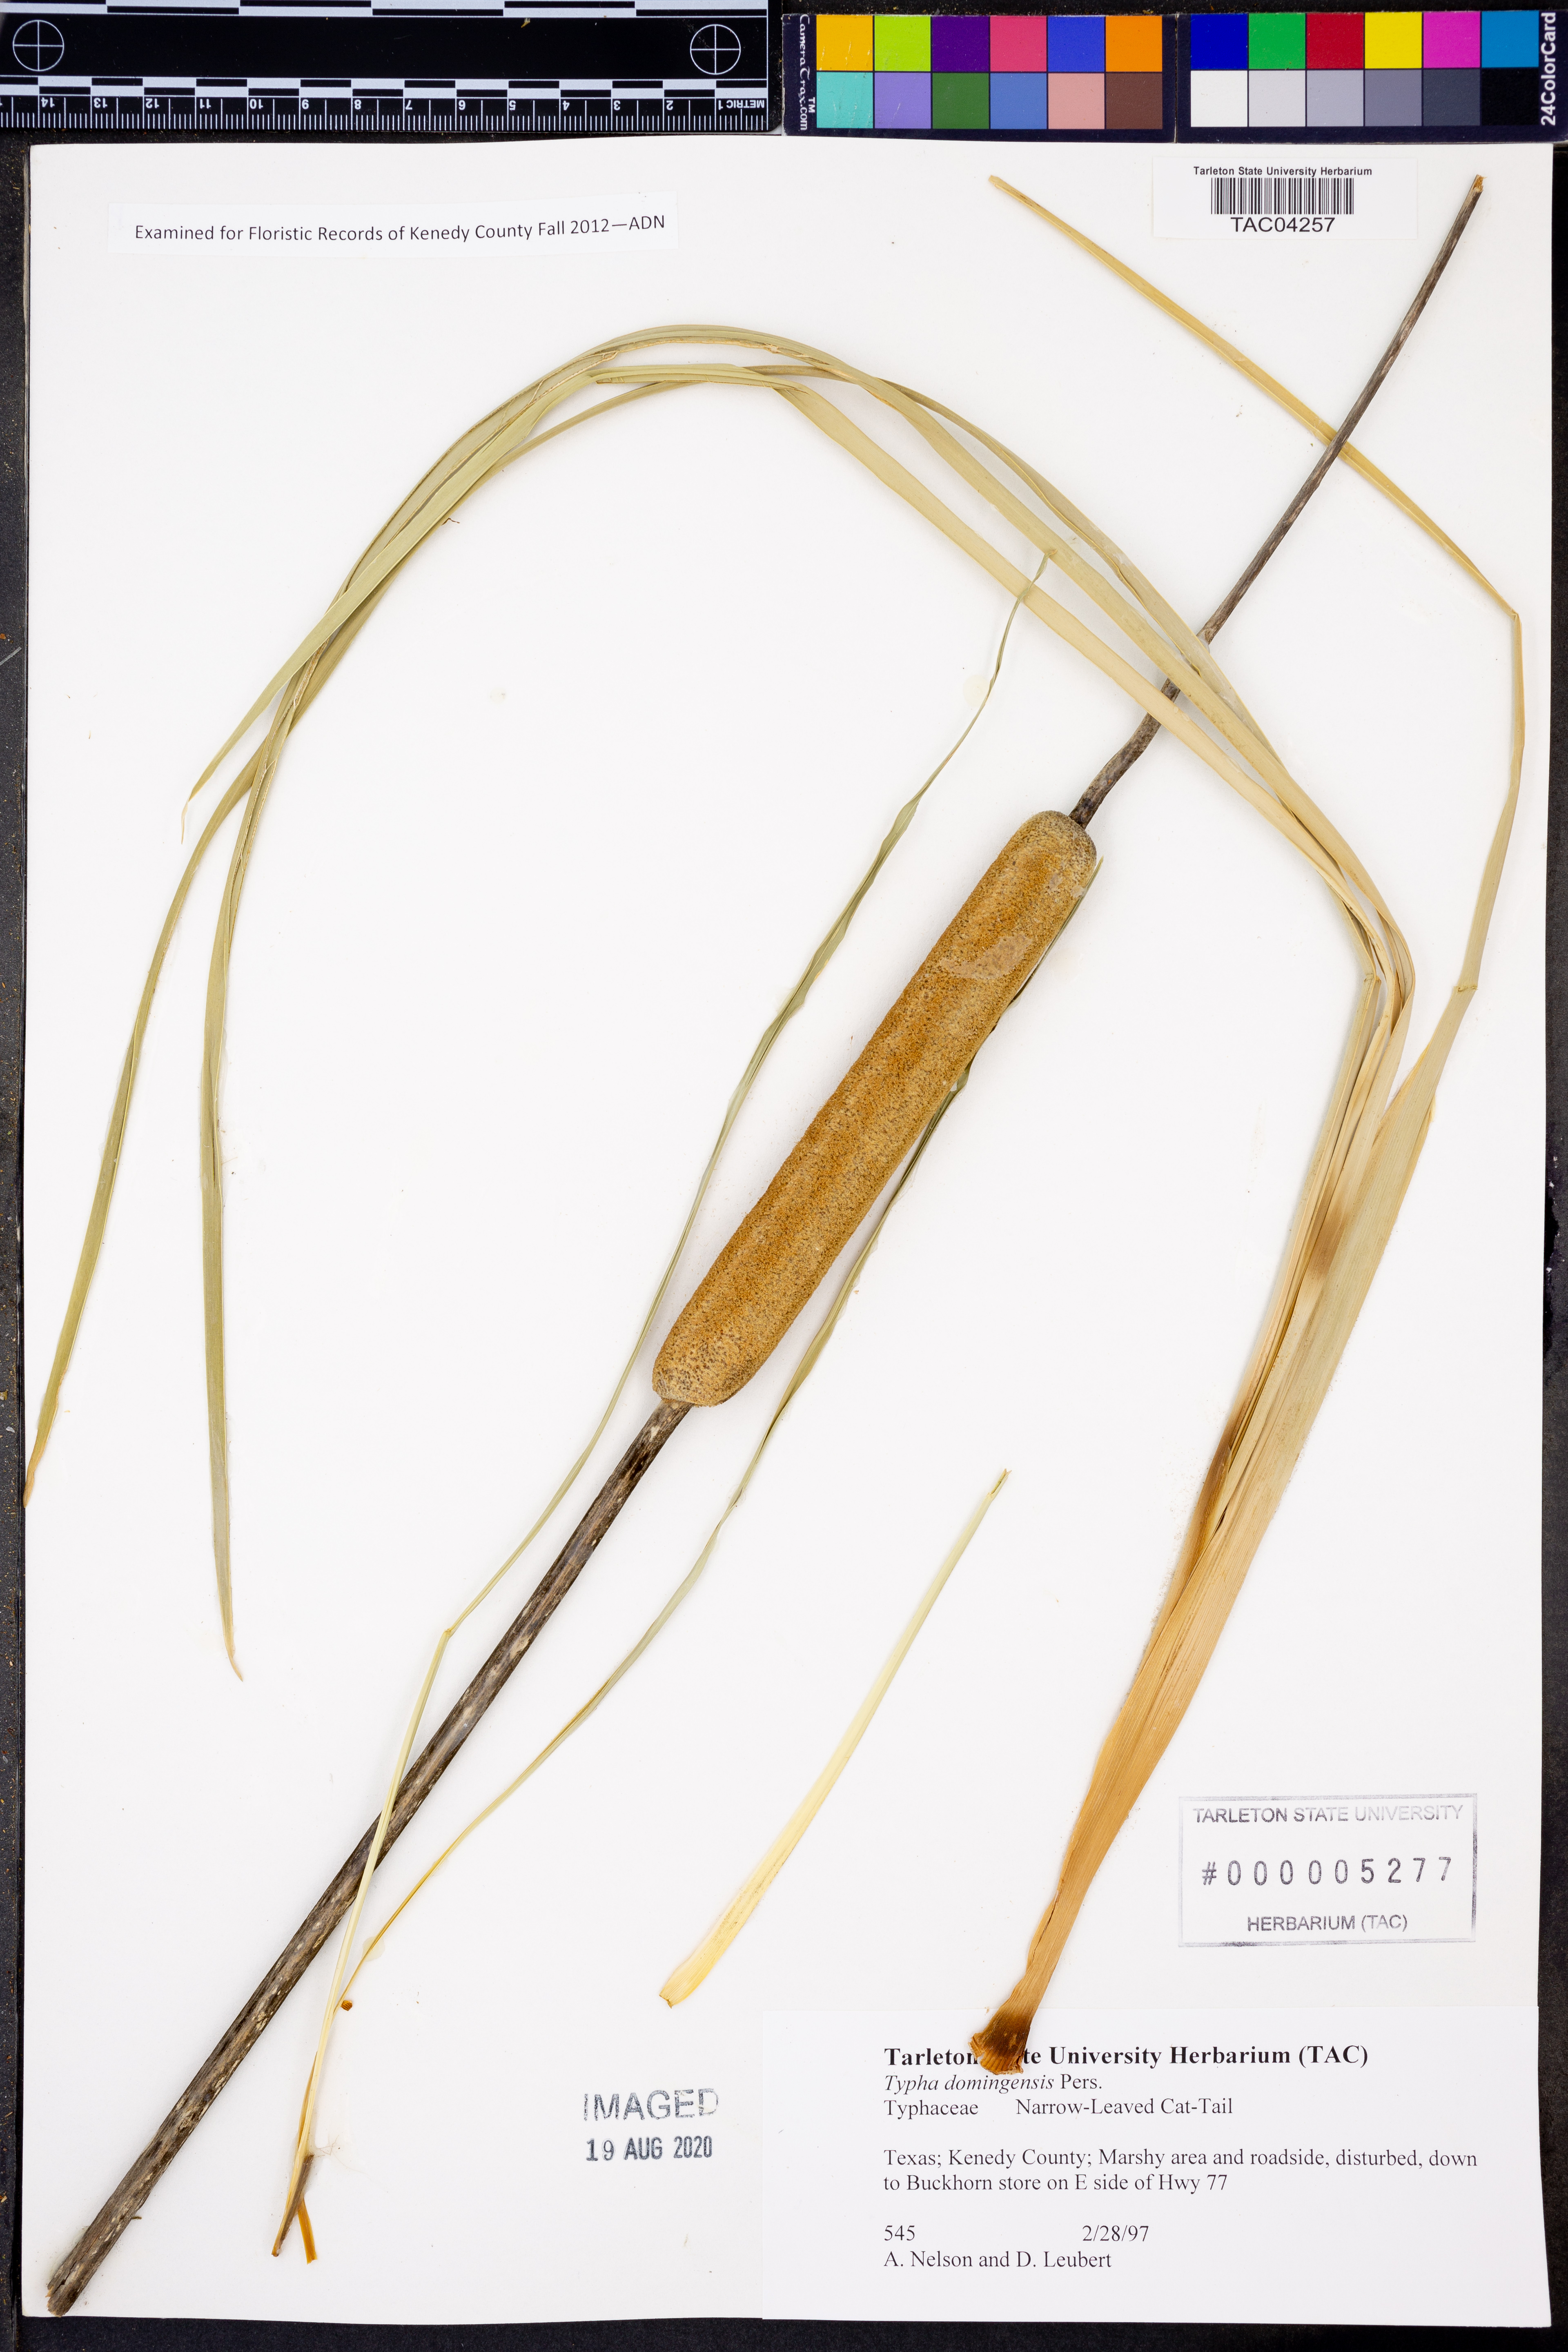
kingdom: Plantae
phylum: Tracheophyta
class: Liliopsida
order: Poales
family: Typhaceae
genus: Typha
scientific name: Typha domingensis
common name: Southern cattail
